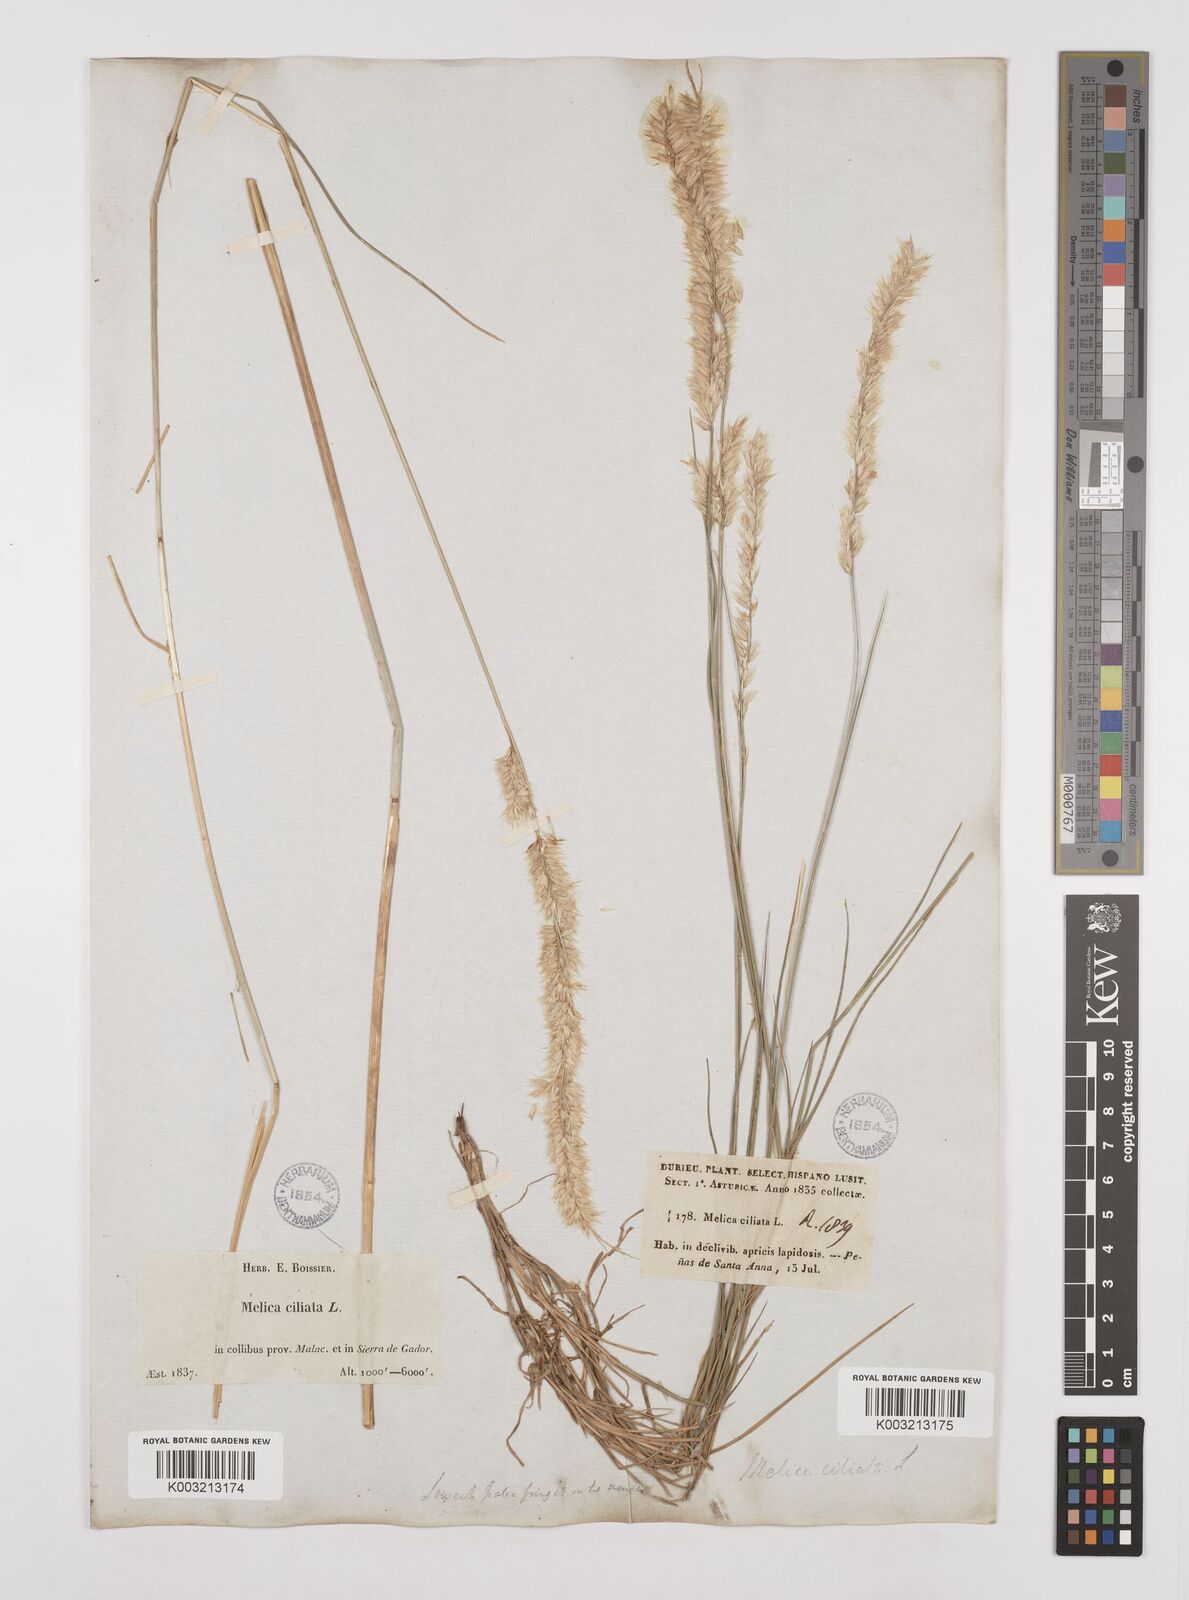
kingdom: Plantae
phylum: Tracheophyta
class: Liliopsida
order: Poales
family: Poaceae
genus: Melica
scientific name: Melica ciliata
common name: Hairy melicgrass
